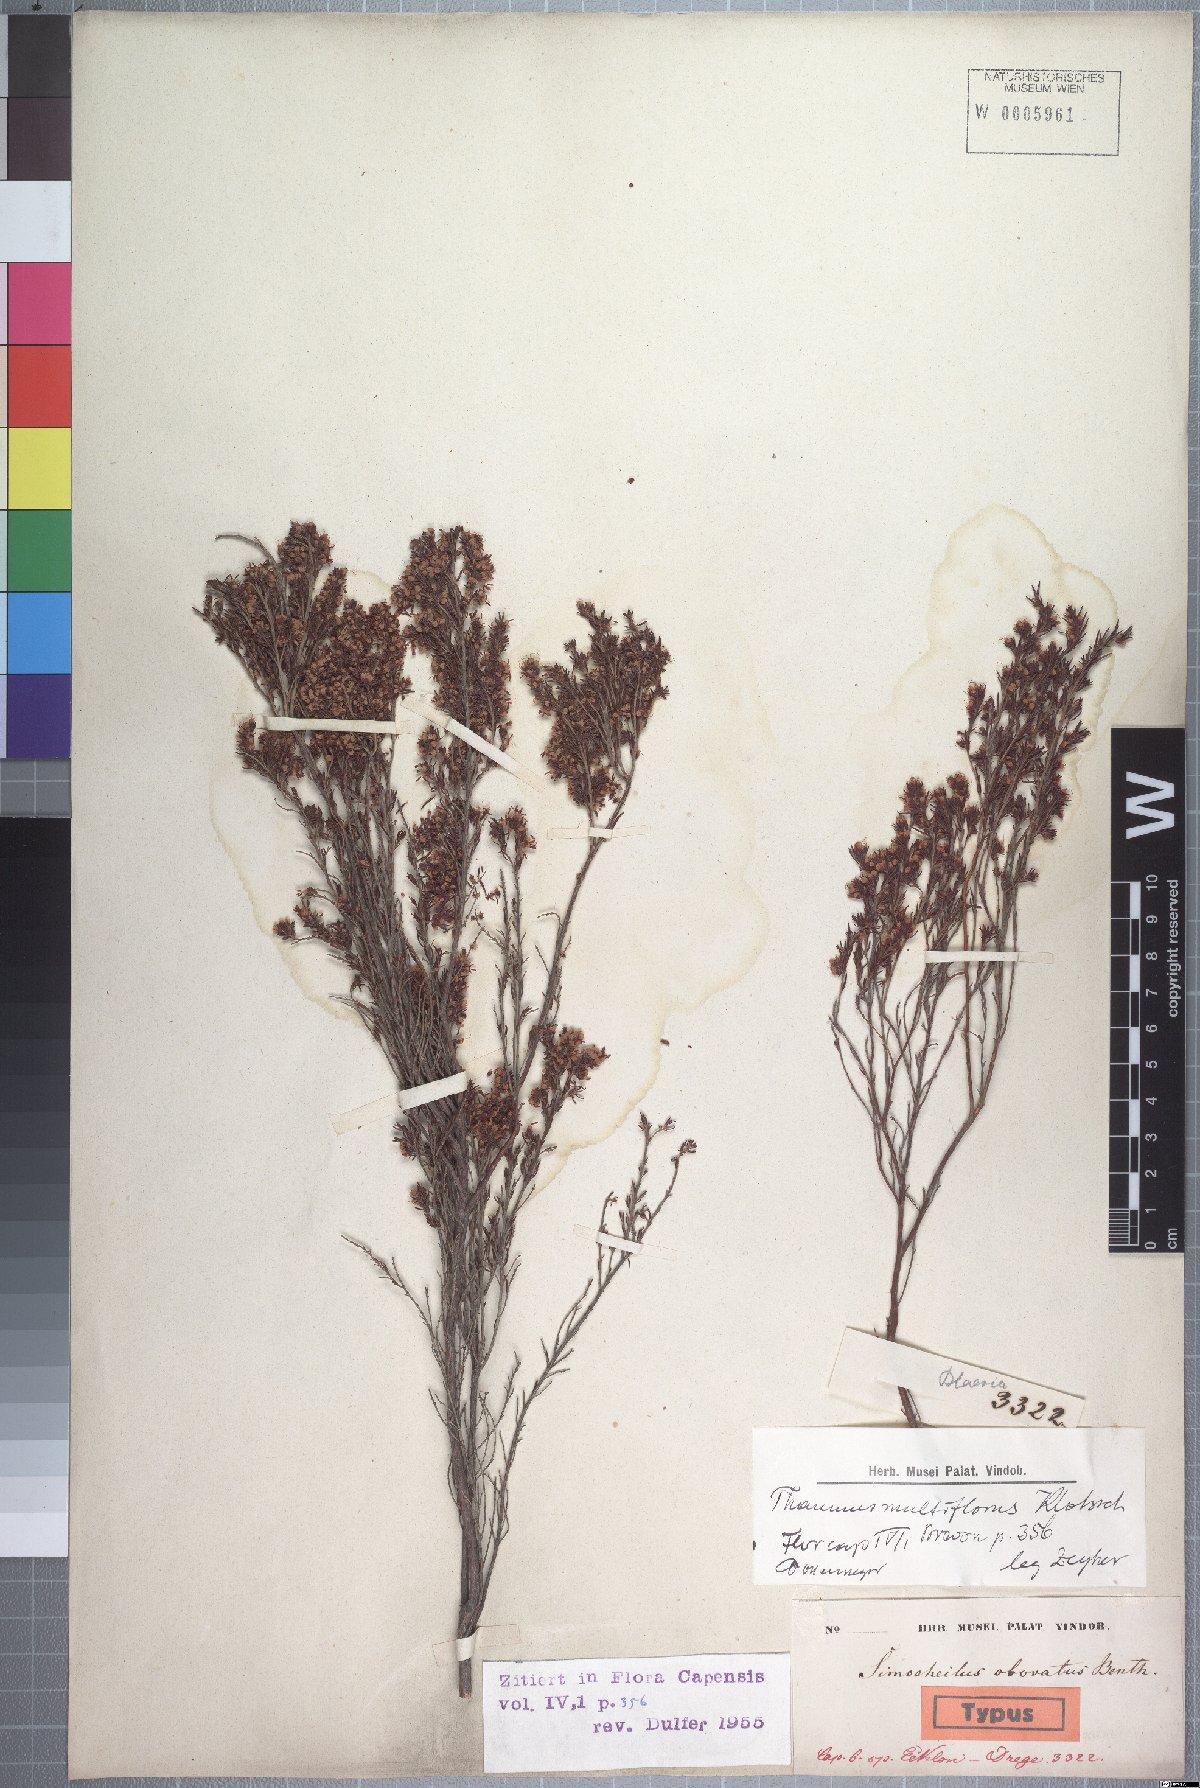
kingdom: Plantae
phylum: Tracheophyta
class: Magnoliopsida
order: Ericales
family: Ericaceae
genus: Erica
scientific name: Erica thamnoides
